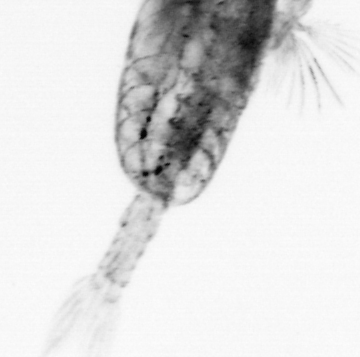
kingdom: Animalia
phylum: Arthropoda
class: Copepoda
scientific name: Copepoda
